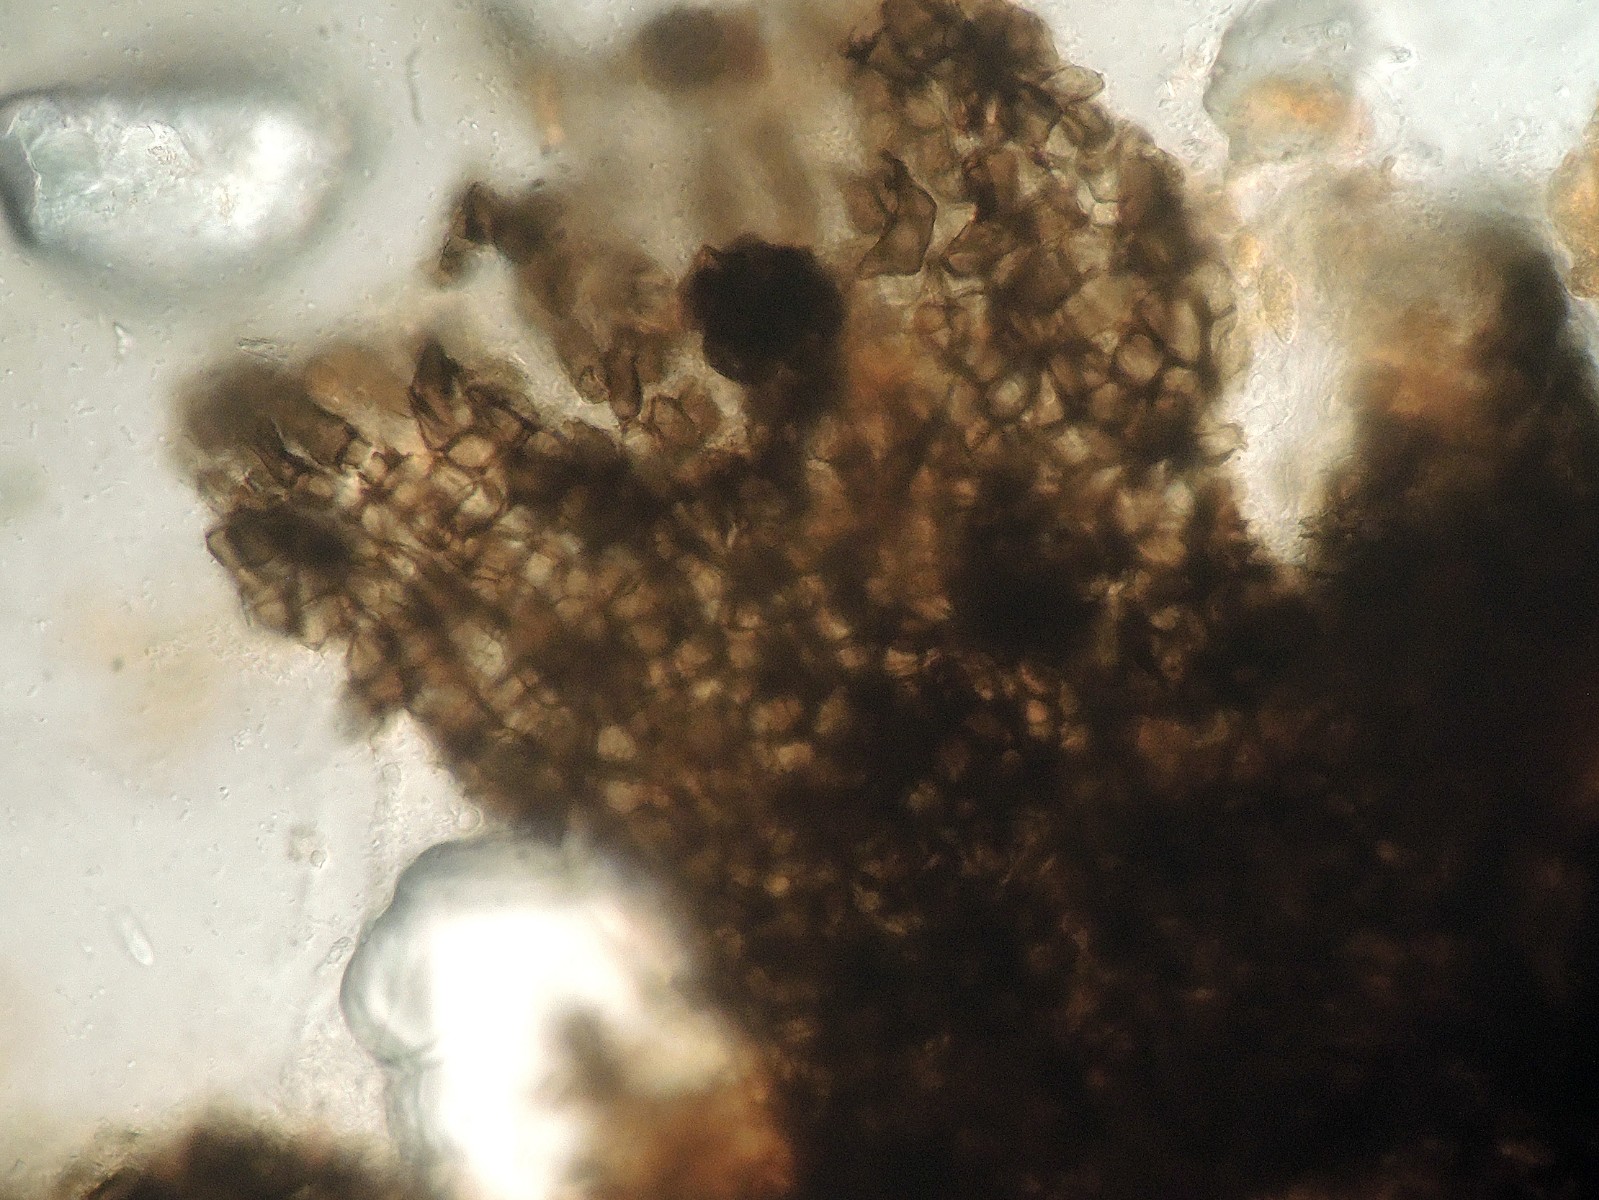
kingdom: Fungi
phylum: Ascomycota
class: Leotiomycetes
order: Helotiales
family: Drepanopezizaceae
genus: Spilopodia
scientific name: Spilopodia melanogramma
